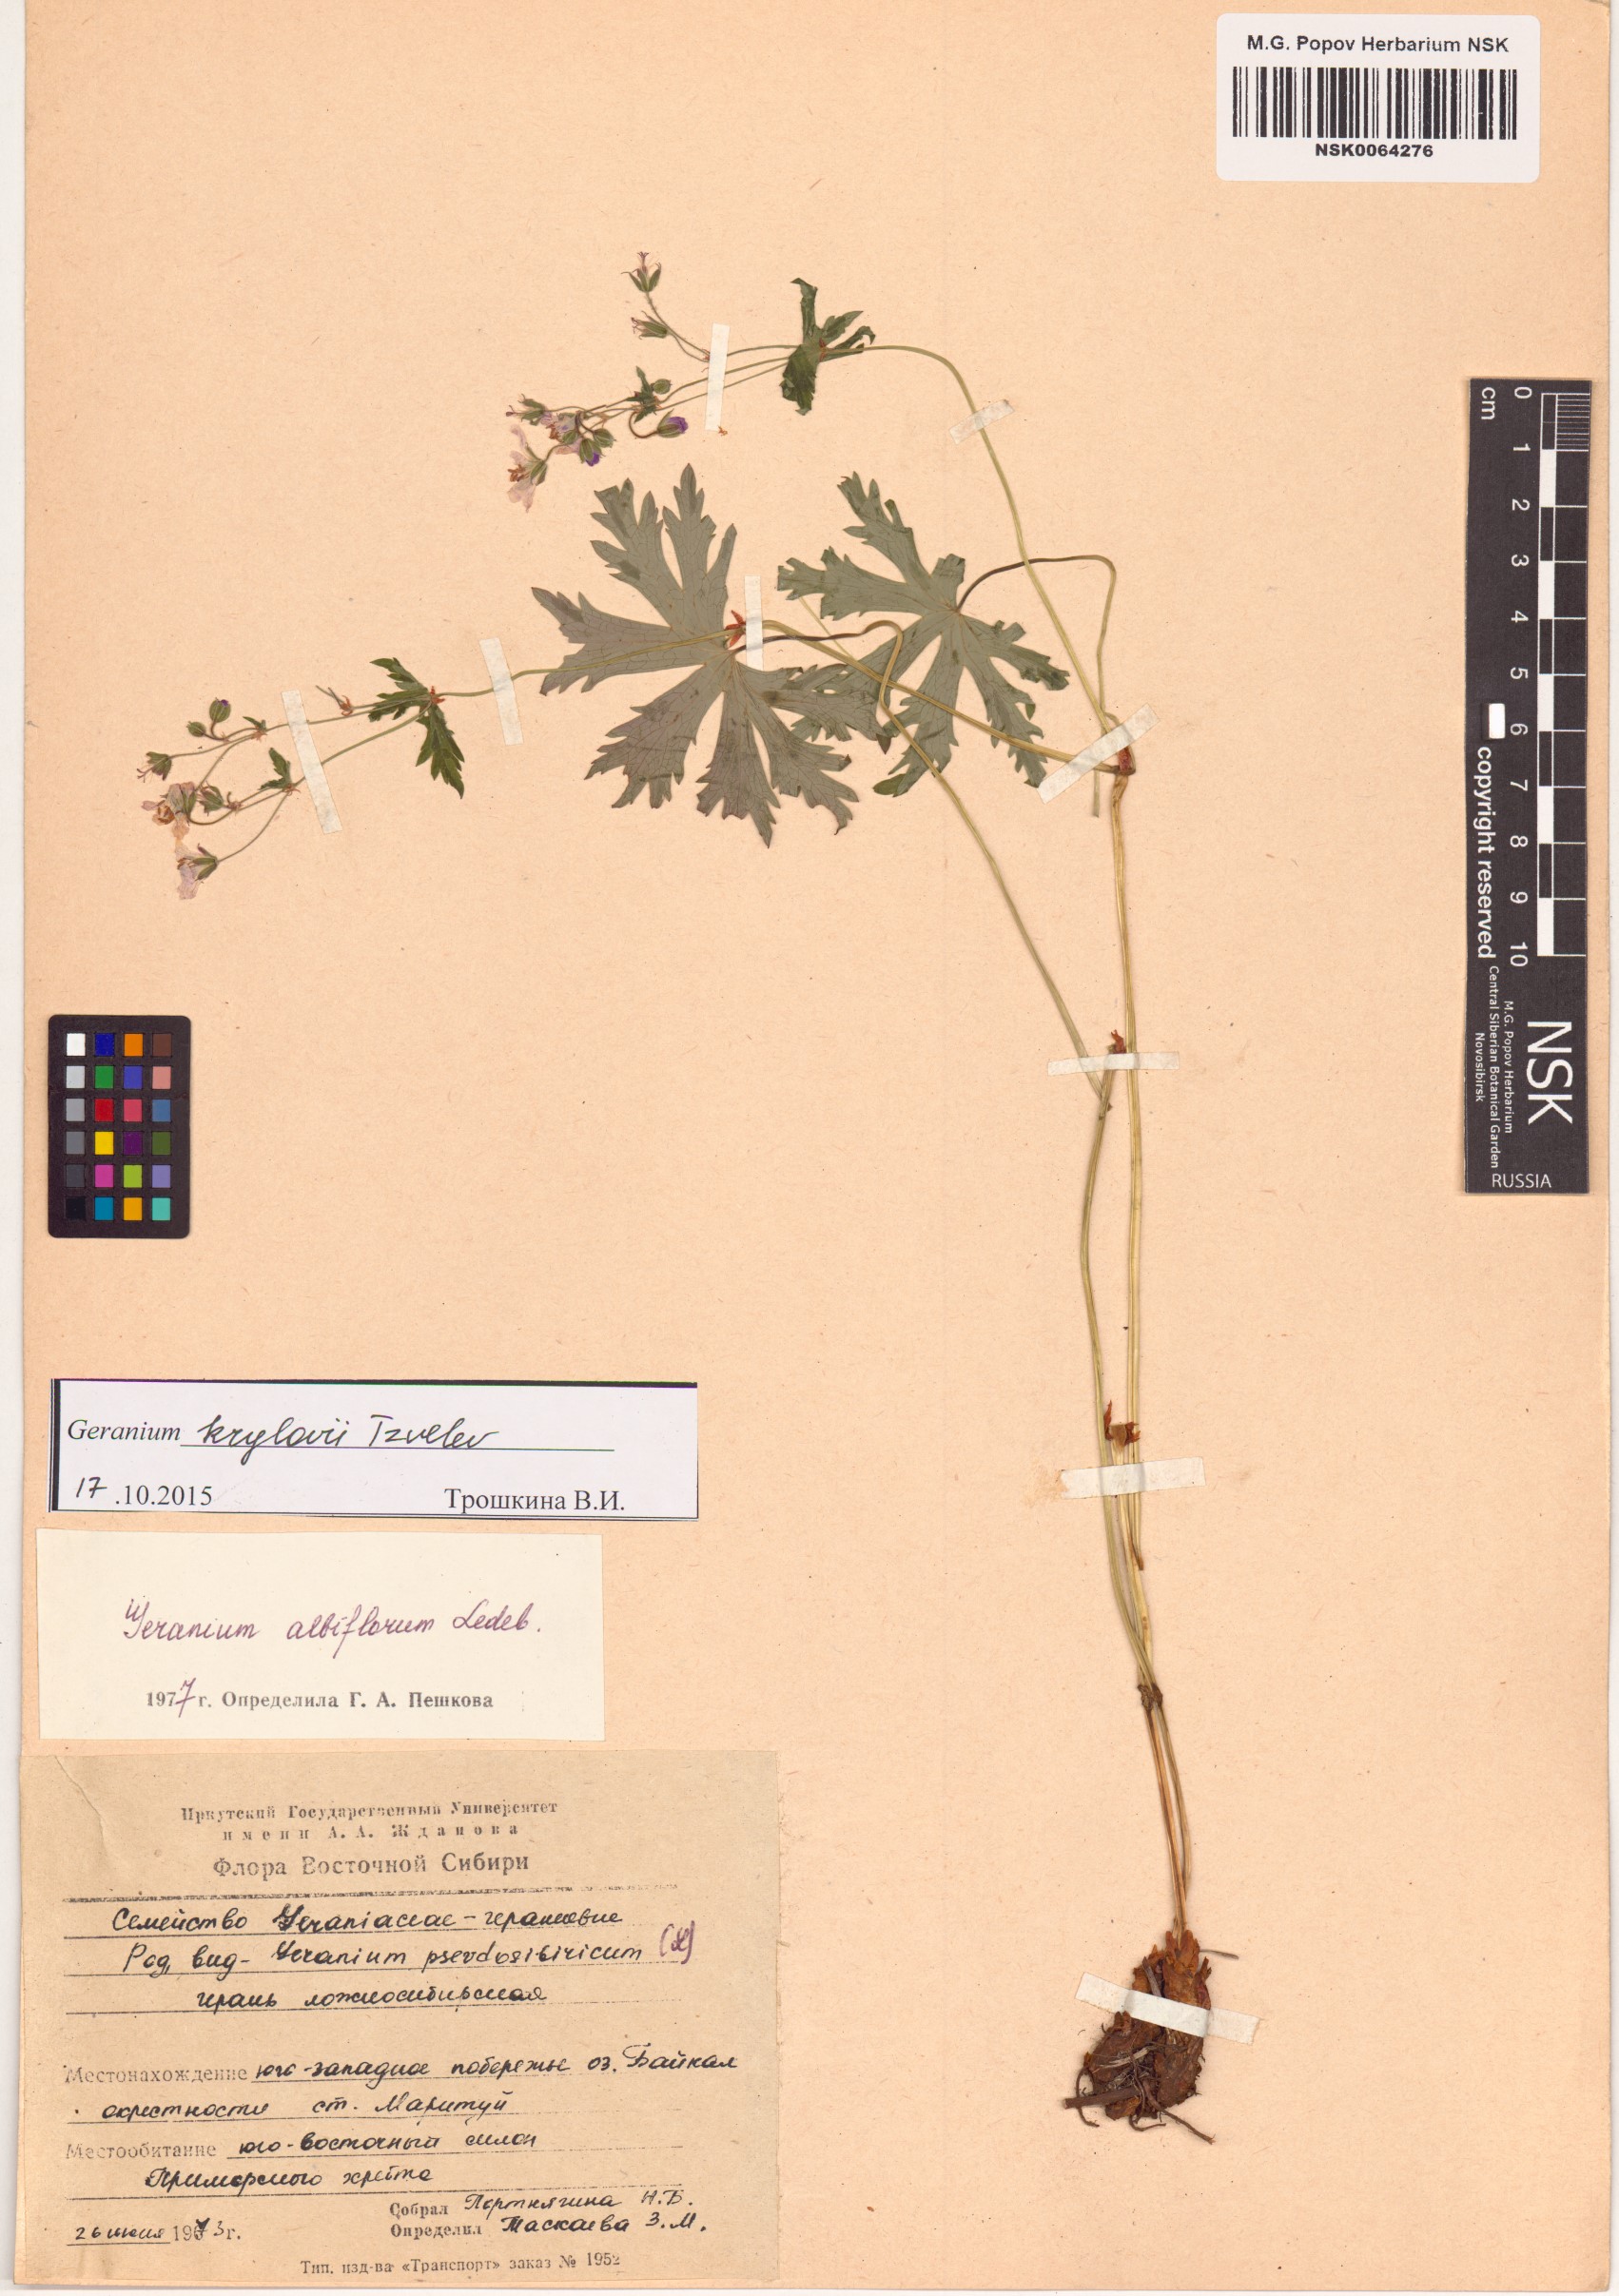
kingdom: Plantae
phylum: Tracheophyta
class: Magnoliopsida
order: Geraniales
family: Geraniaceae
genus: Geranium
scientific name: Geranium sylvaticum
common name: Wood crane's-bill
